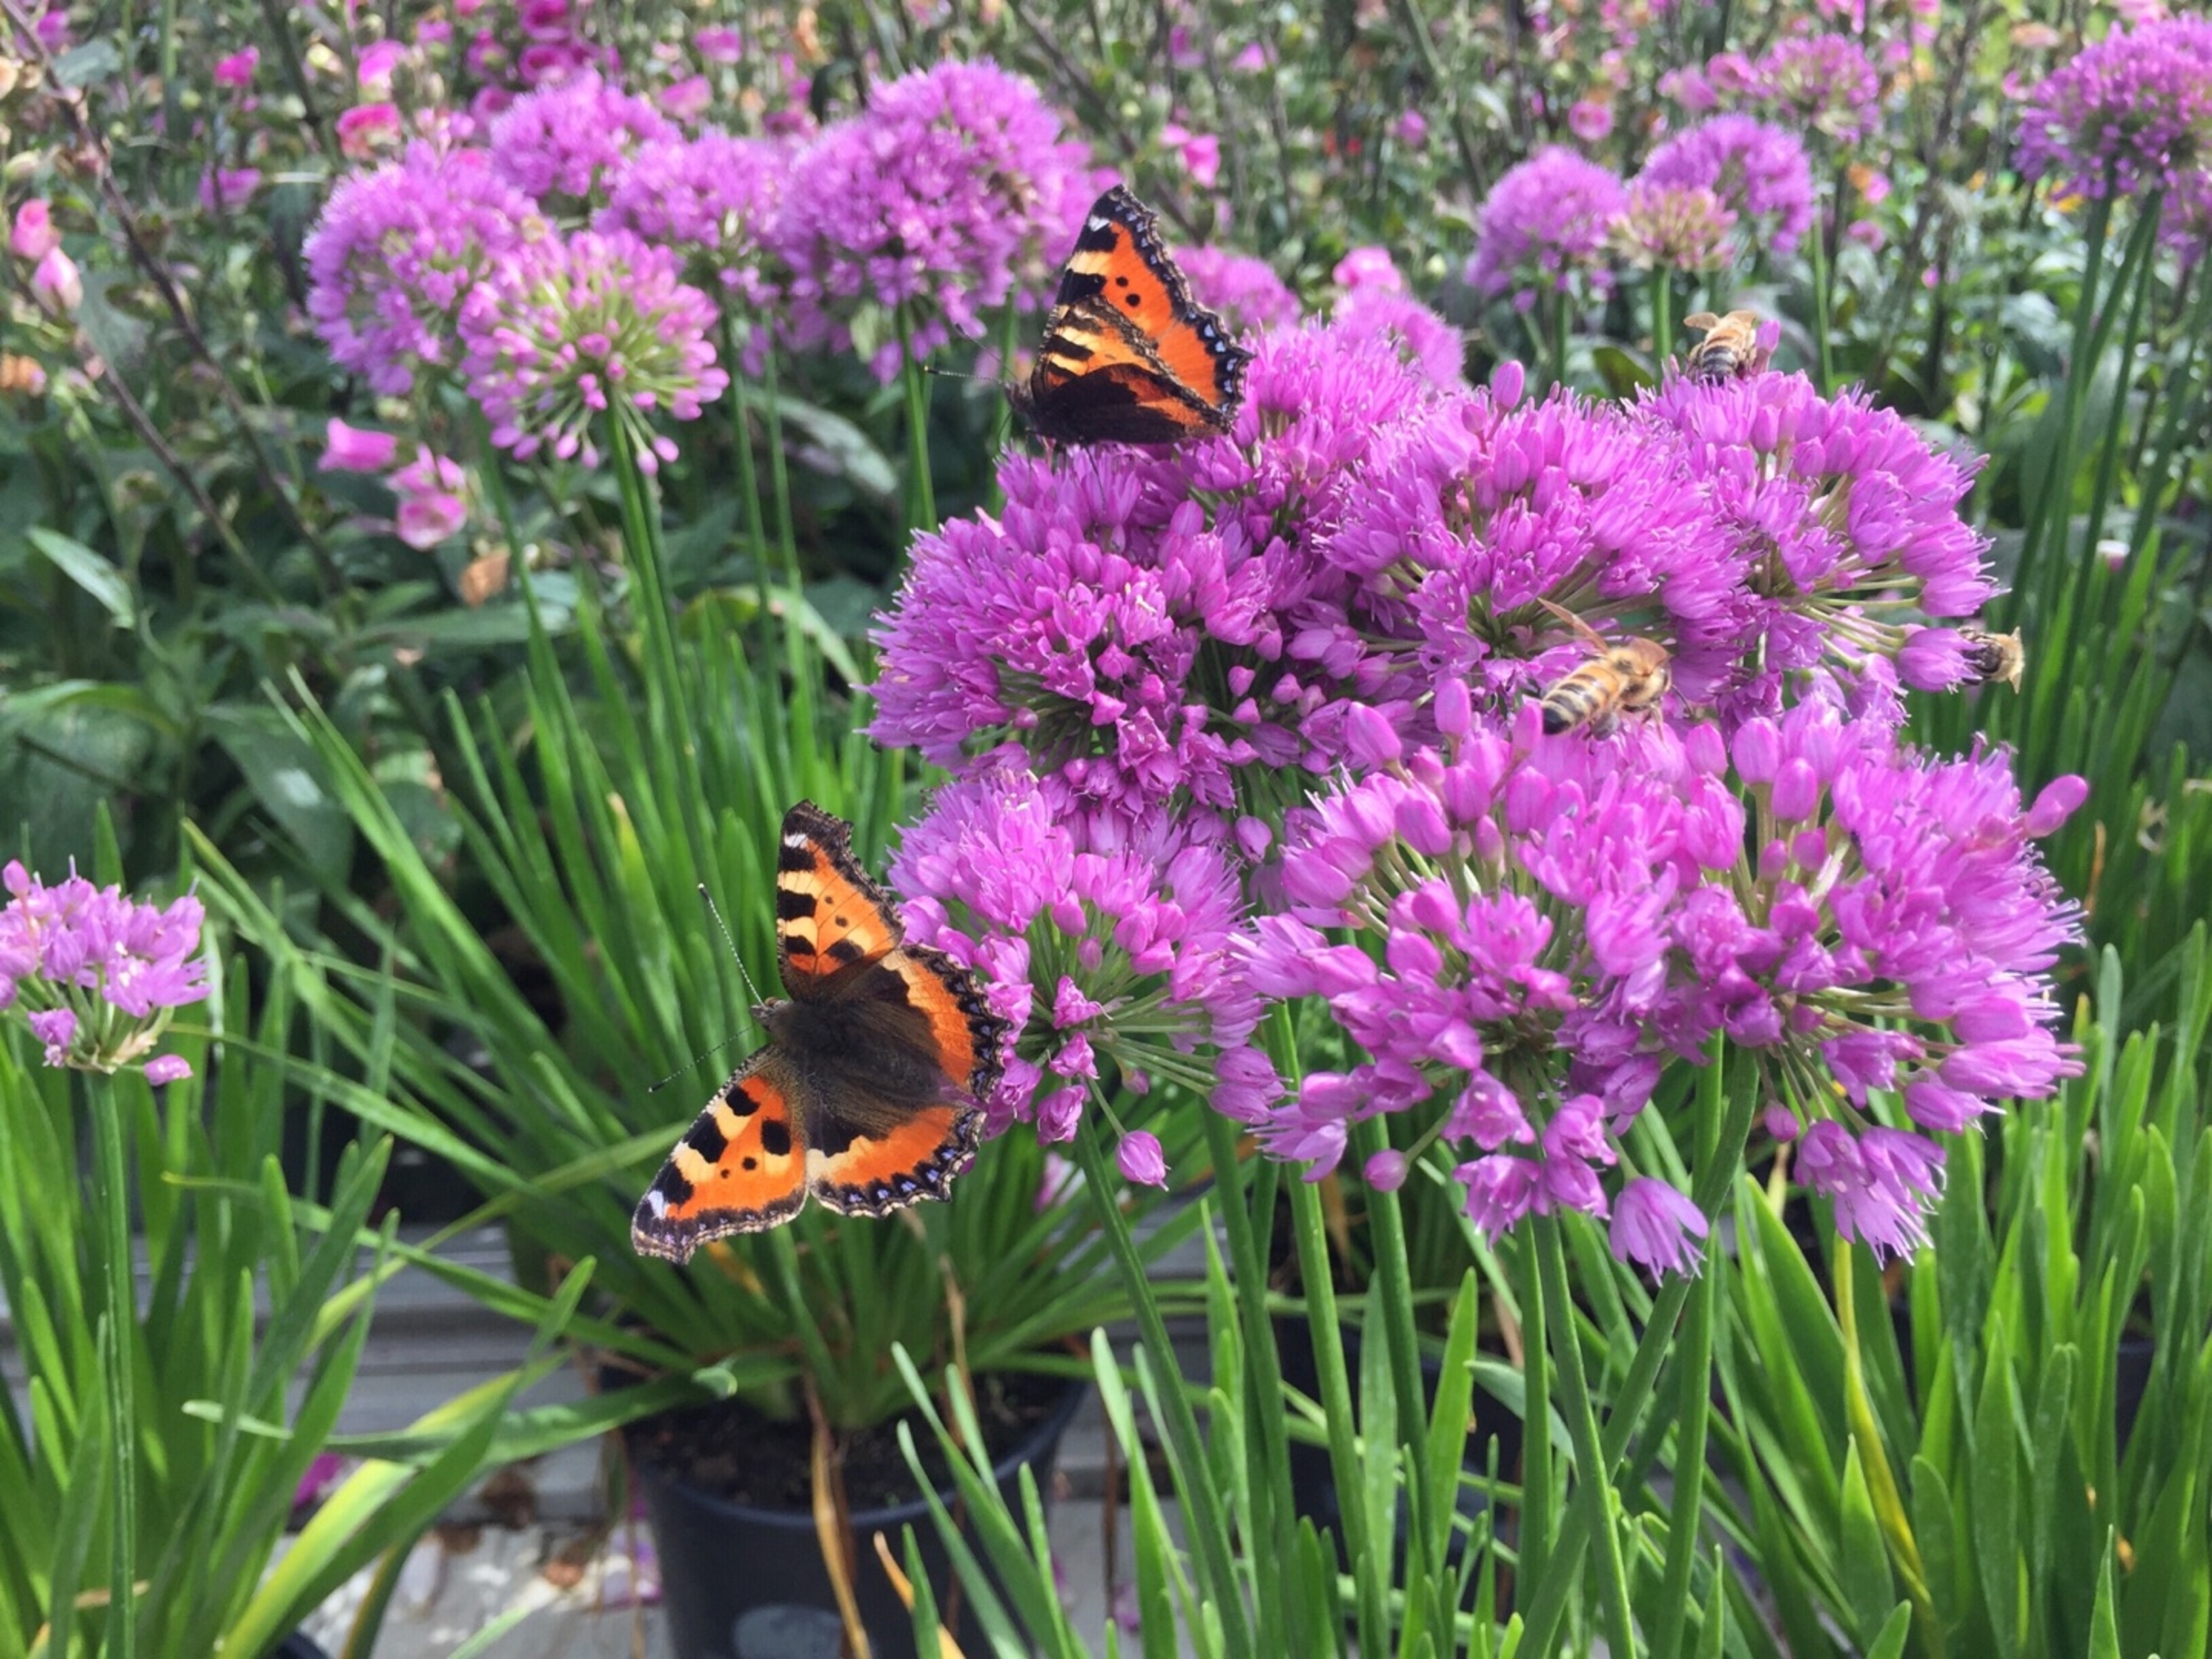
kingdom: Animalia
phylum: Arthropoda
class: Insecta
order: Lepidoptera
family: Nymphalidae
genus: Aglais
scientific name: Aglais urticae
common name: Nældens takvinge
